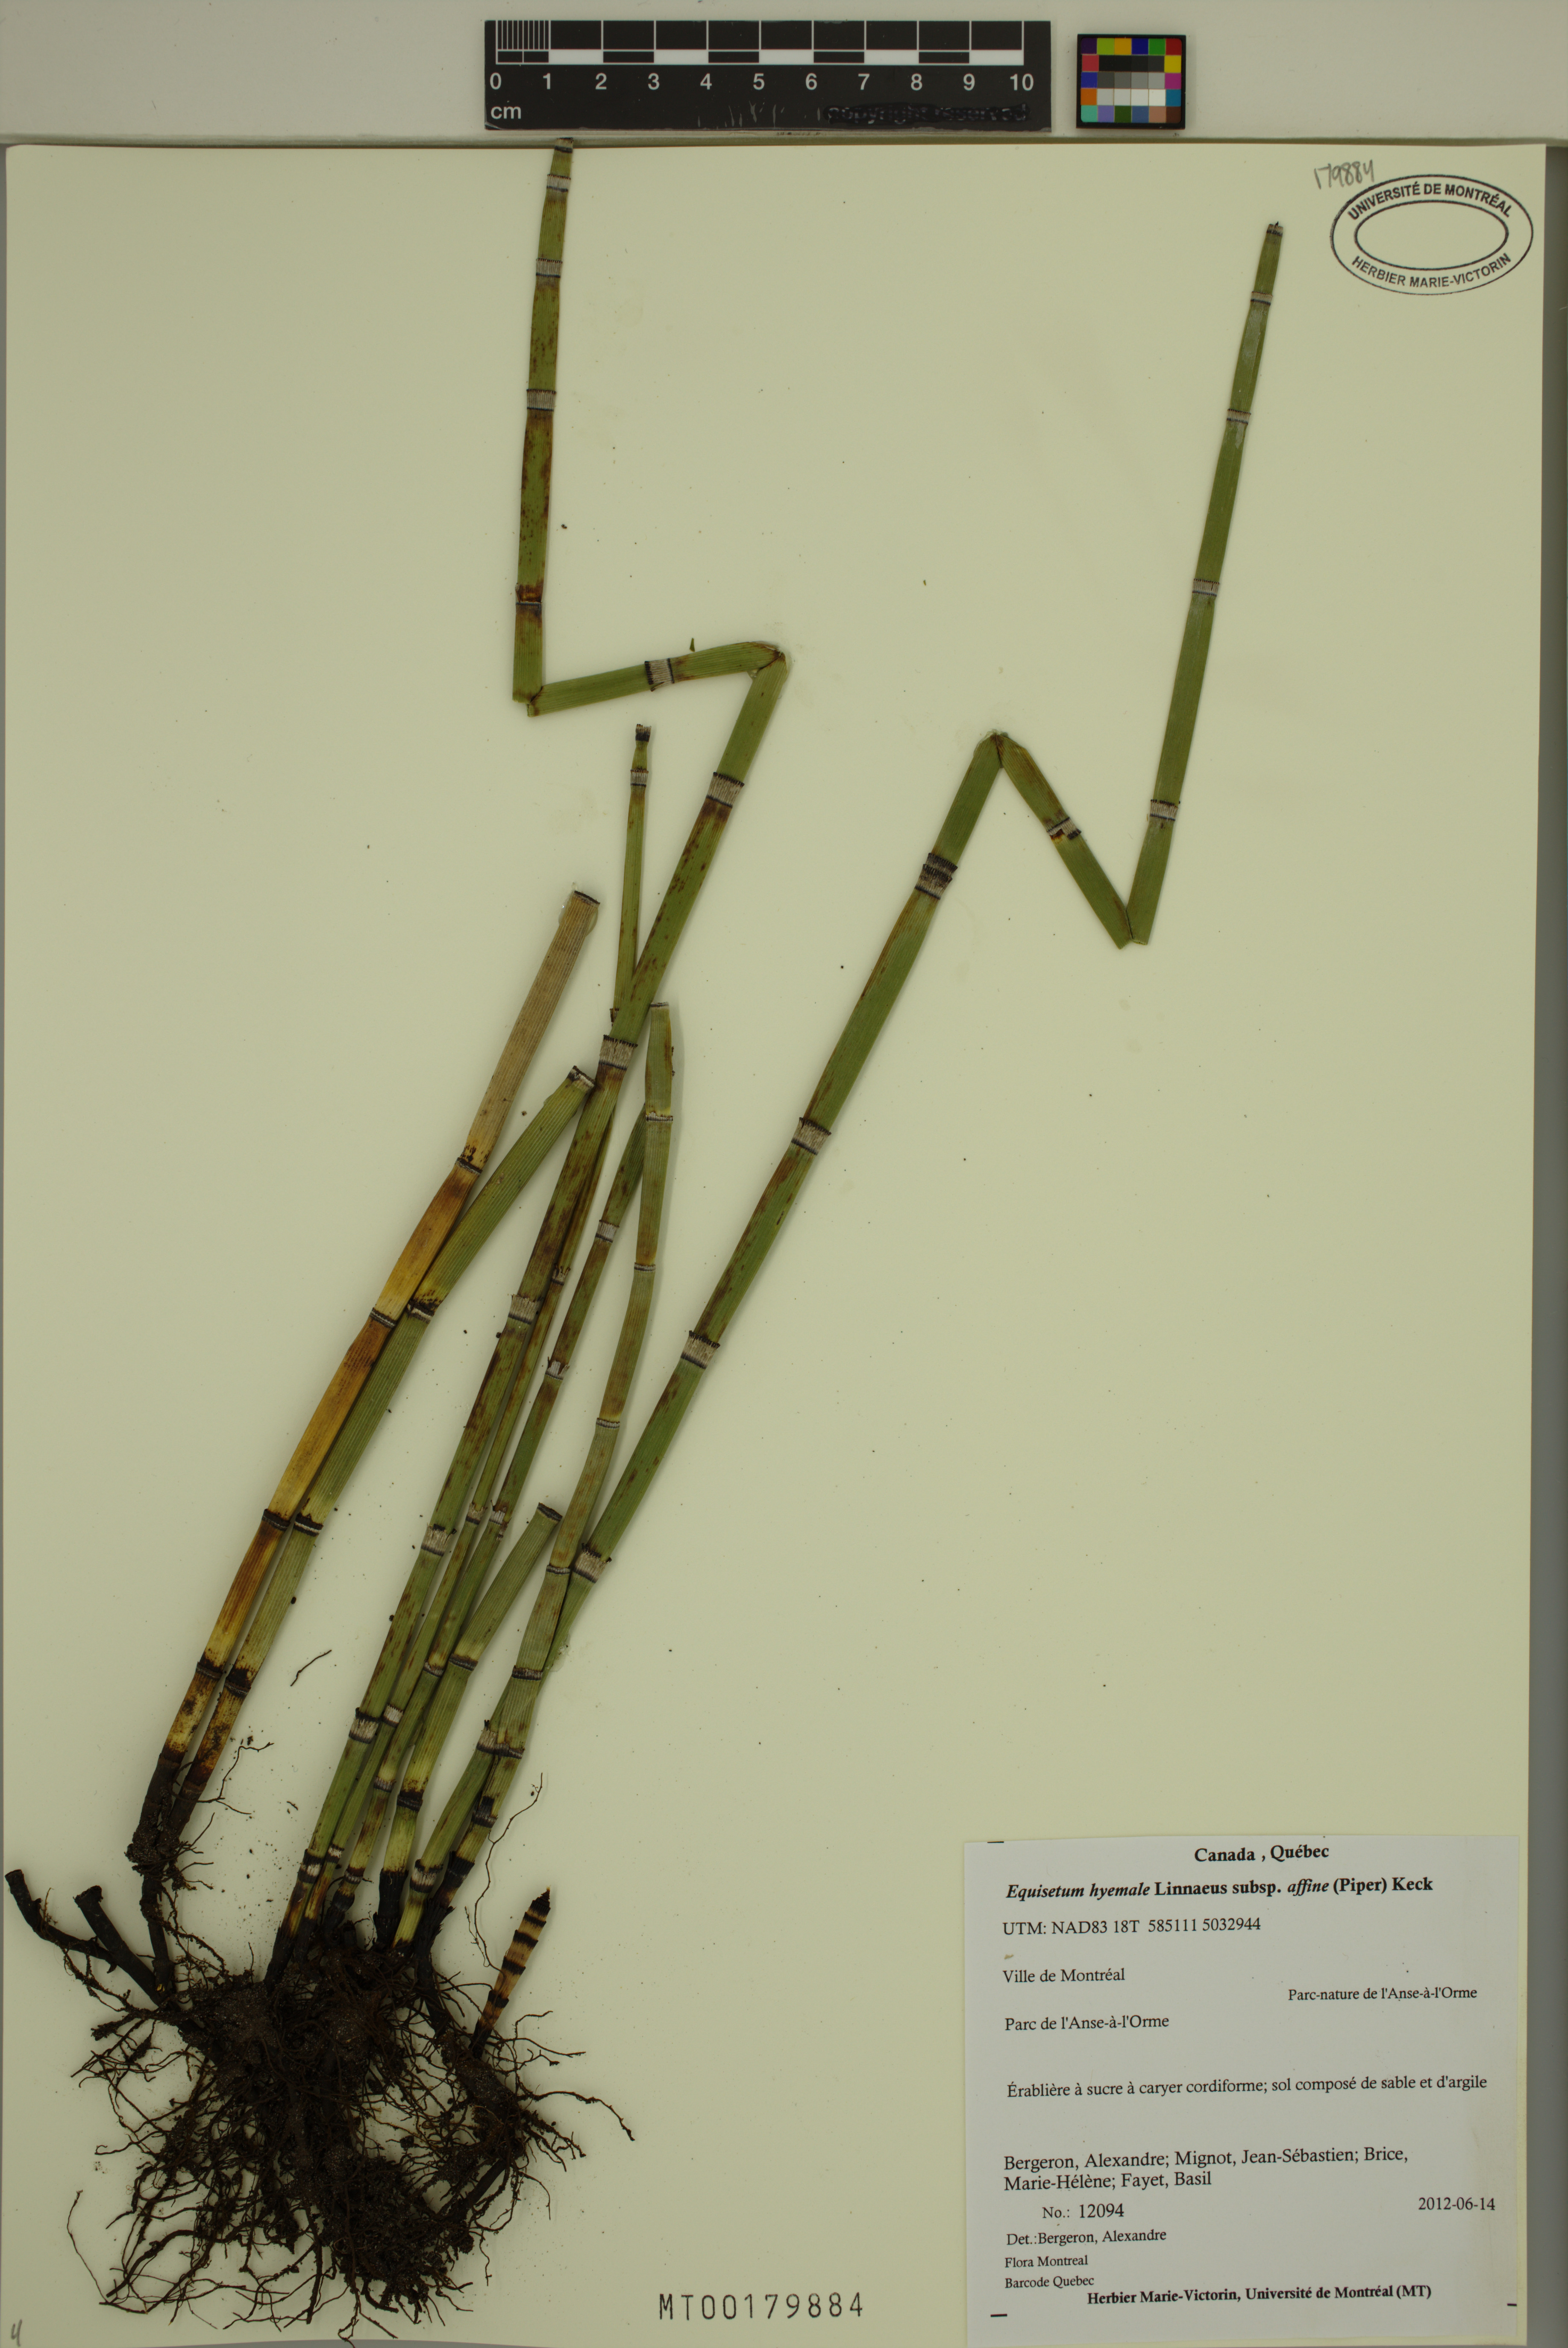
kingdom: Plantae
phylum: Tracheophyta
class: Polypodiopsida
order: Equisetales
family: Equisetaceae
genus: Equisetum
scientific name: Equisetum praealtum
